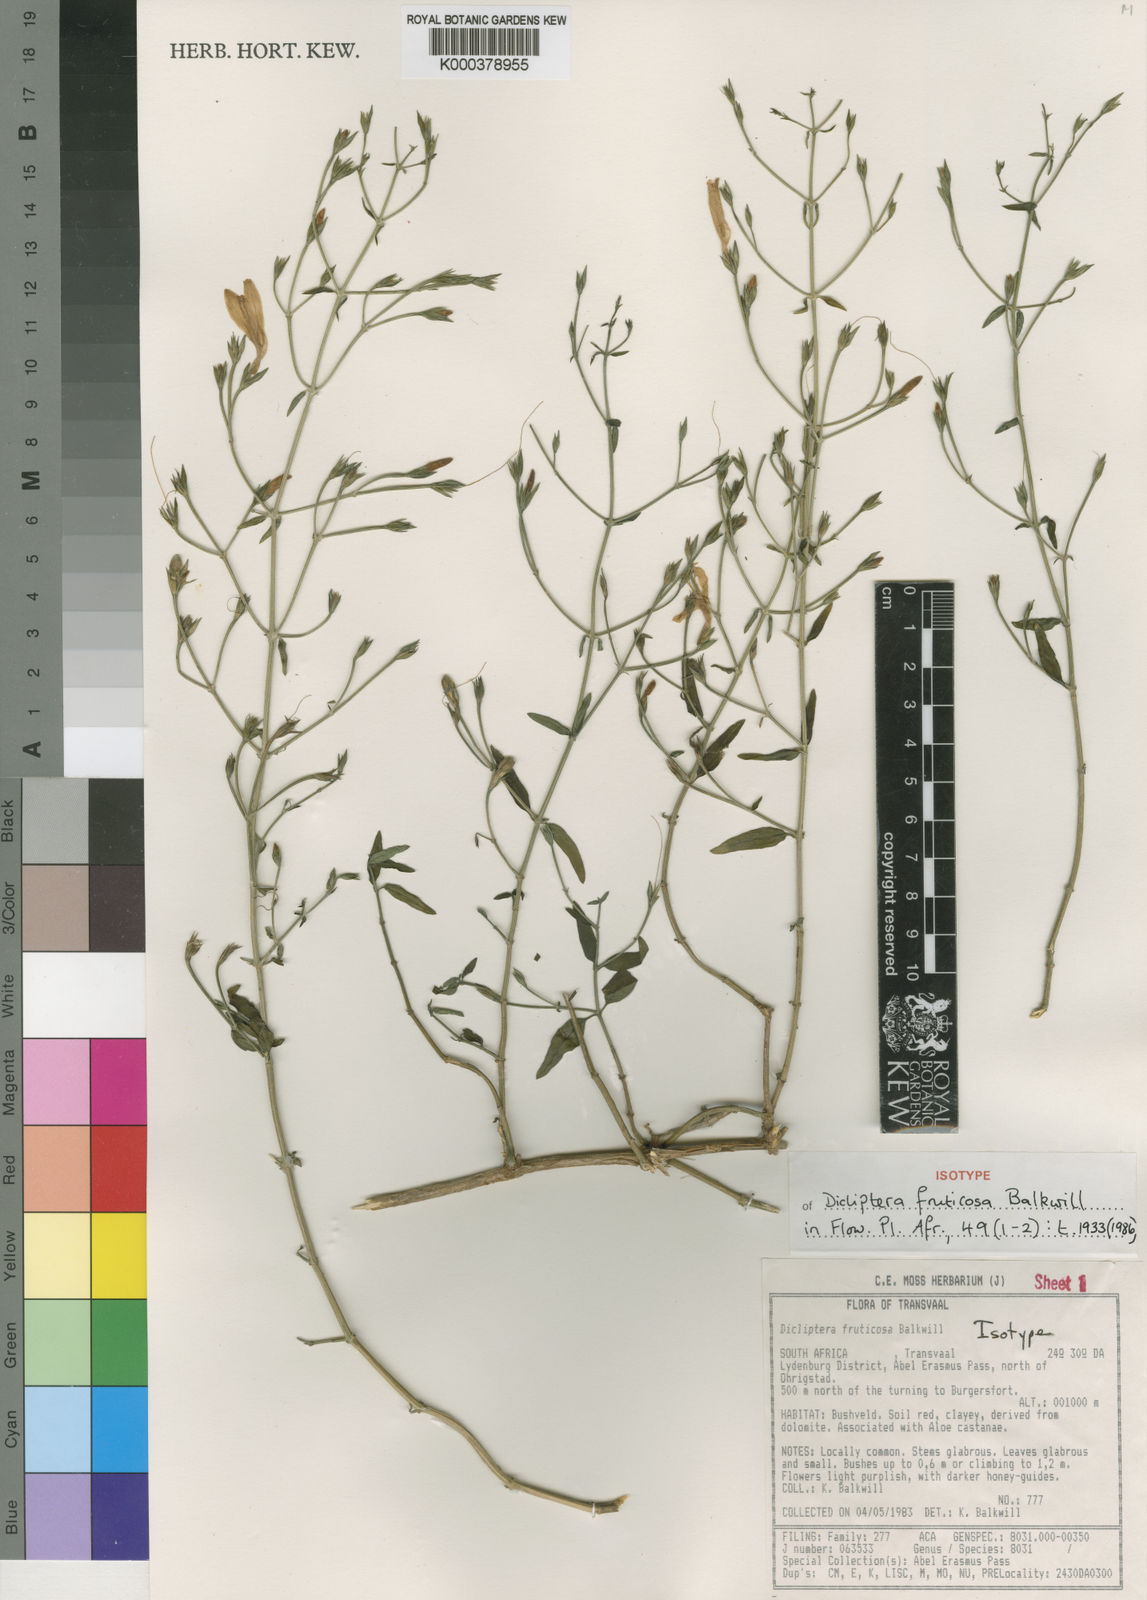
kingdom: Plantae
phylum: Tracheophyta
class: Magnoliopsida
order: Lamiales
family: Acanthaceae
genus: Dicliptera
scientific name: Dicliptera fruticosa
